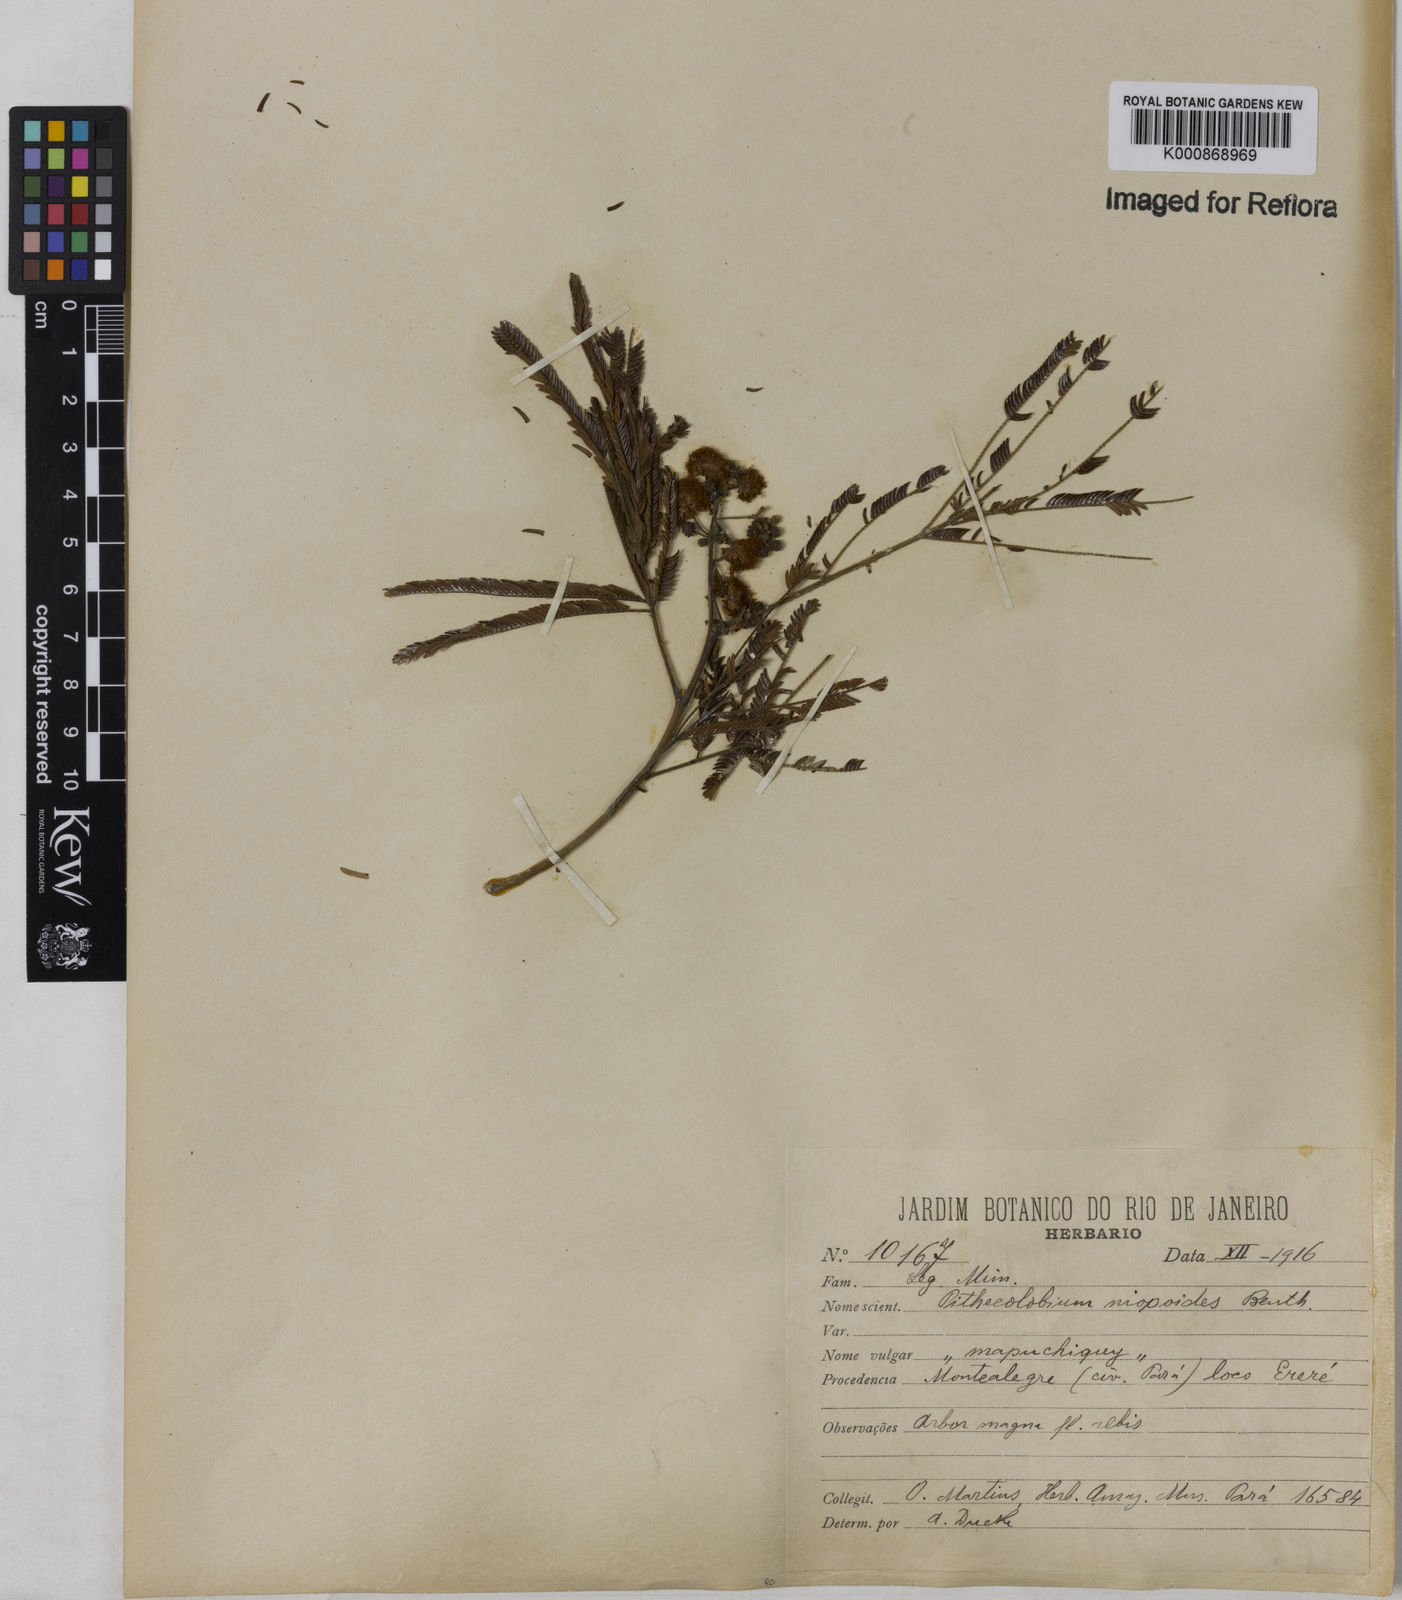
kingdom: Plantae
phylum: Tracheophyta
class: Magnoliopsida
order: Fabales
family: Fabaceae
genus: Albizia
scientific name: Albizia niopoides
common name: Silk tree
